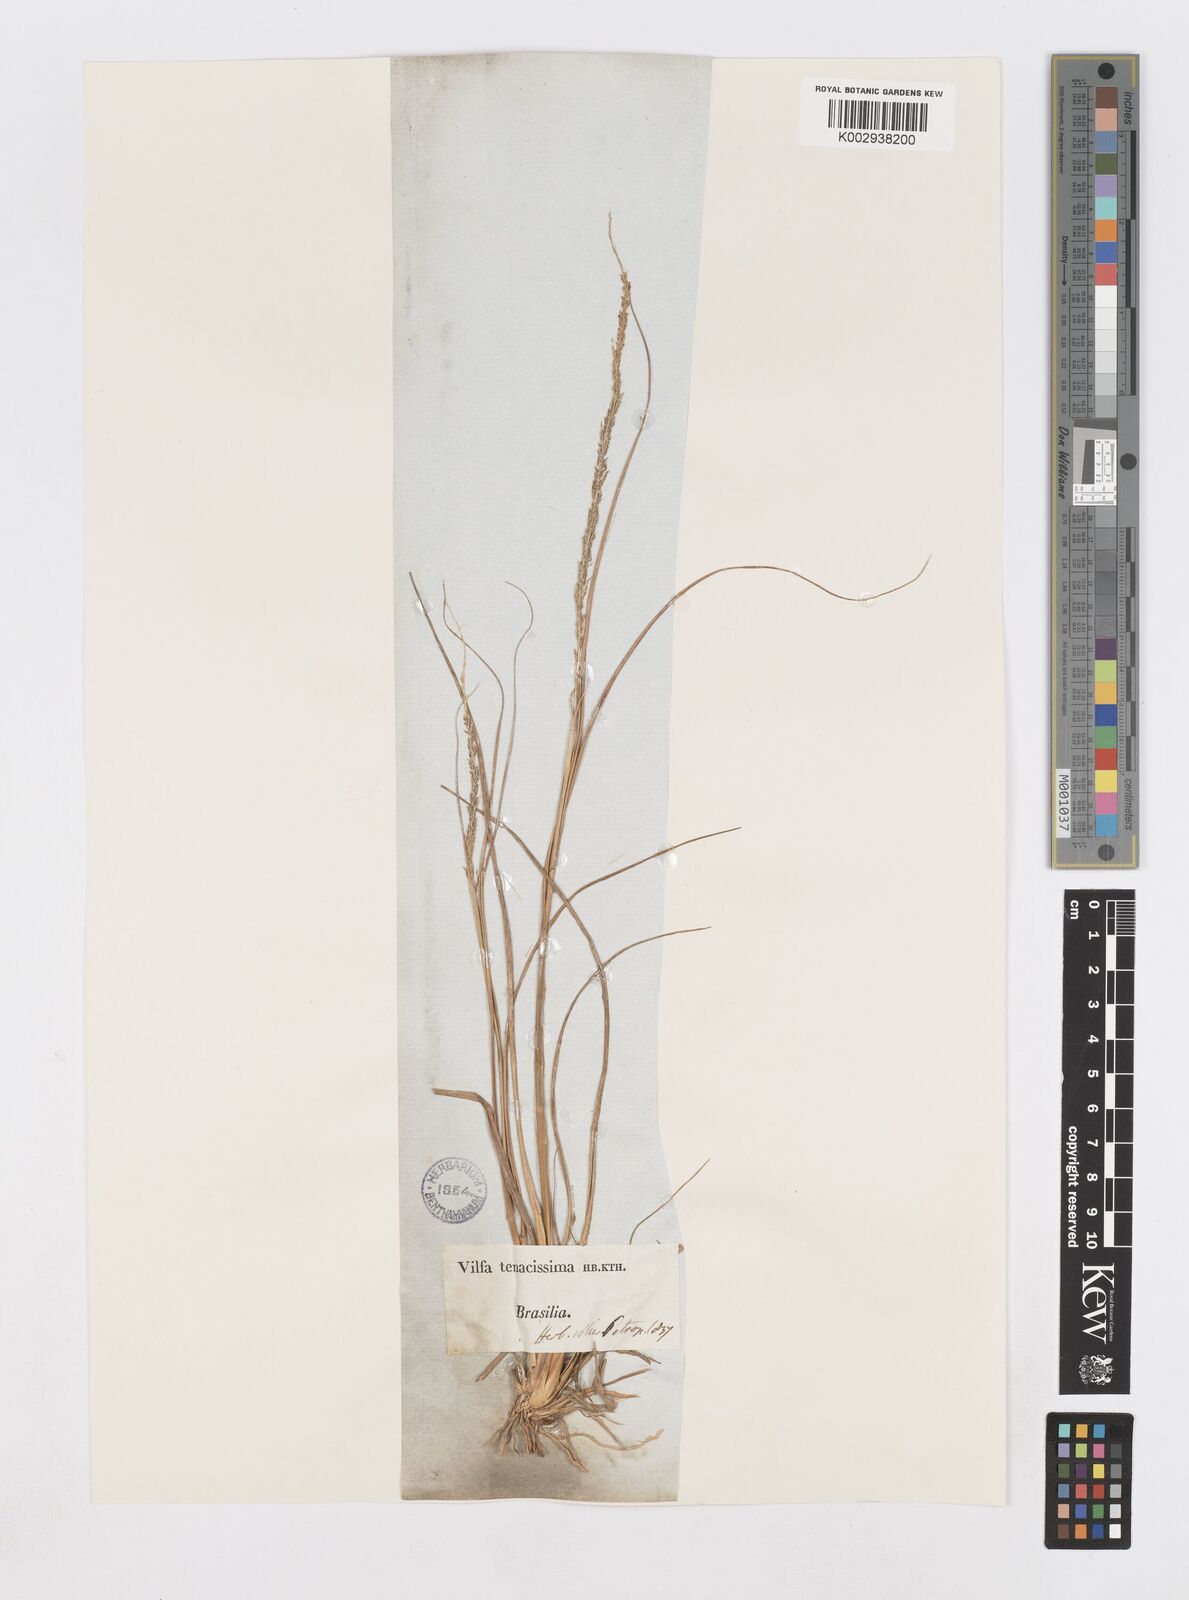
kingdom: Plantae
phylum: Tracheophyta
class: Liliopsida
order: Poales
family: Poaceae
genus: Sporobolus
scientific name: Sporobolus indicus
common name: Smut grass
